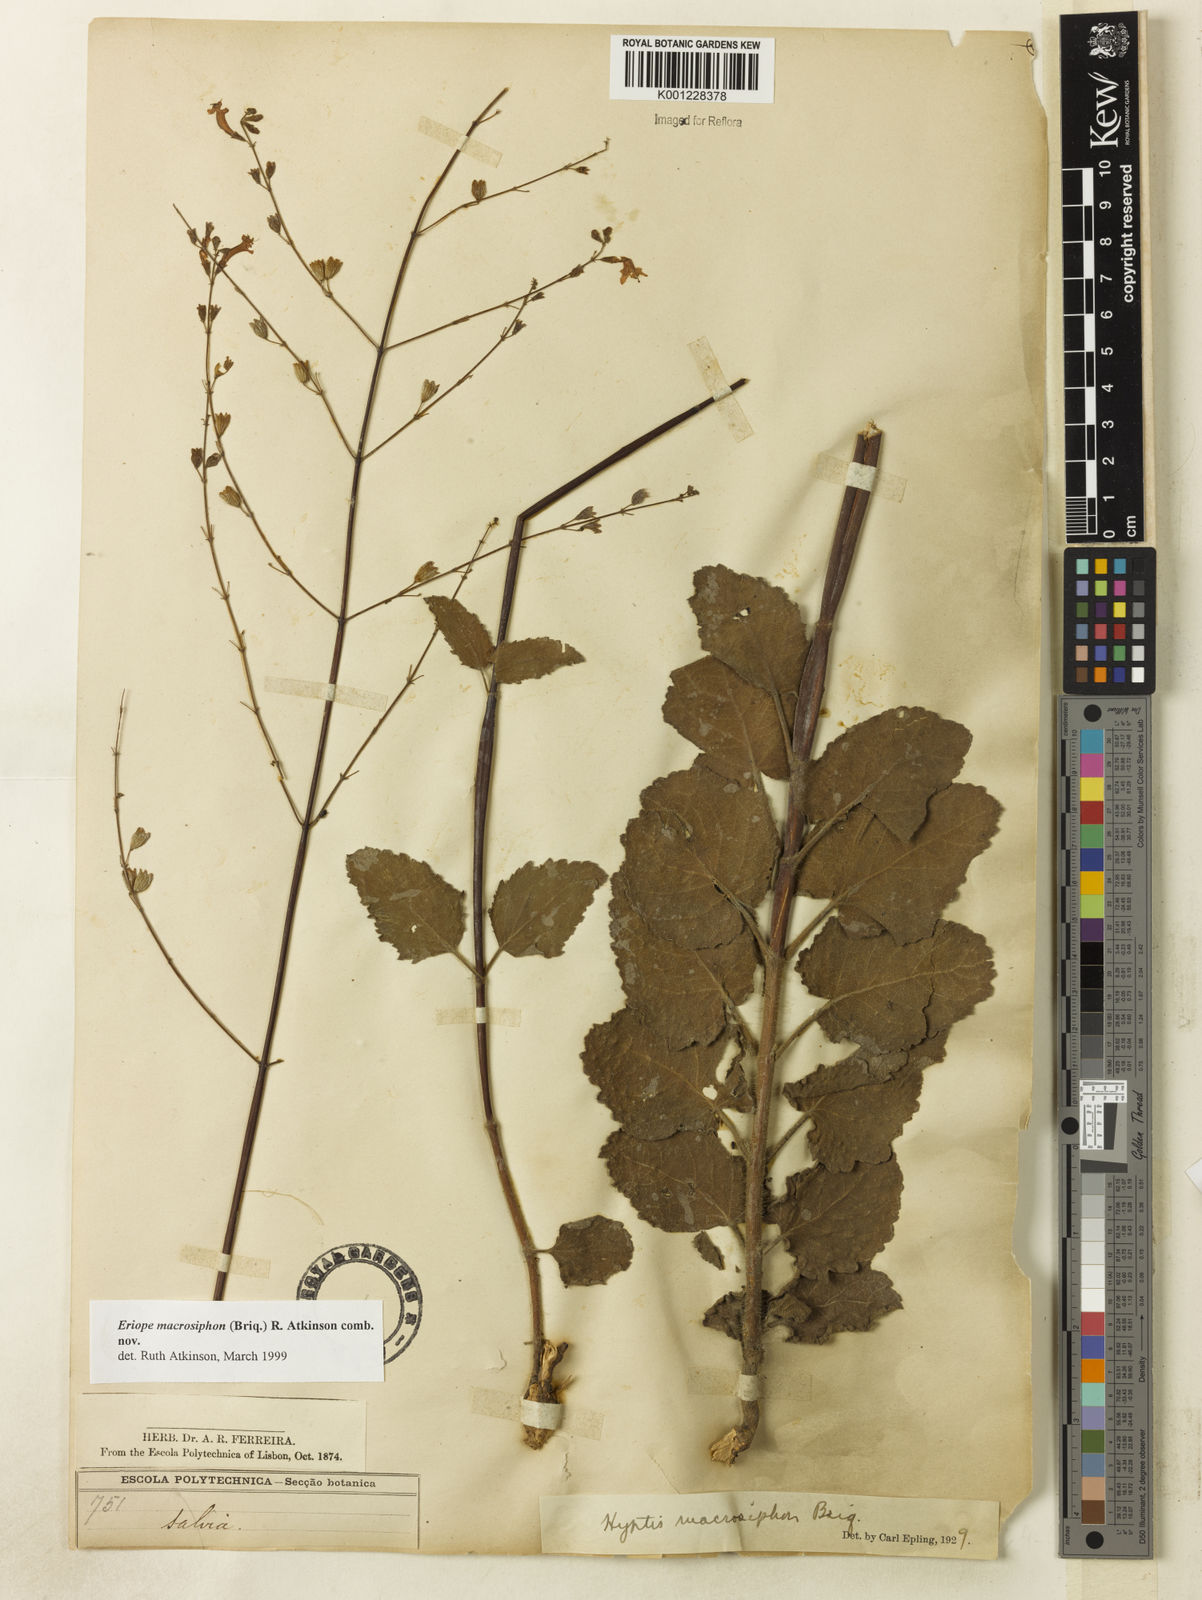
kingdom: Plantae
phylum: Tracheophyta
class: Magnoliopsida
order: Lamiales
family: Lamiaceae
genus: Hypenia
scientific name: Hypenia macrosiphon
